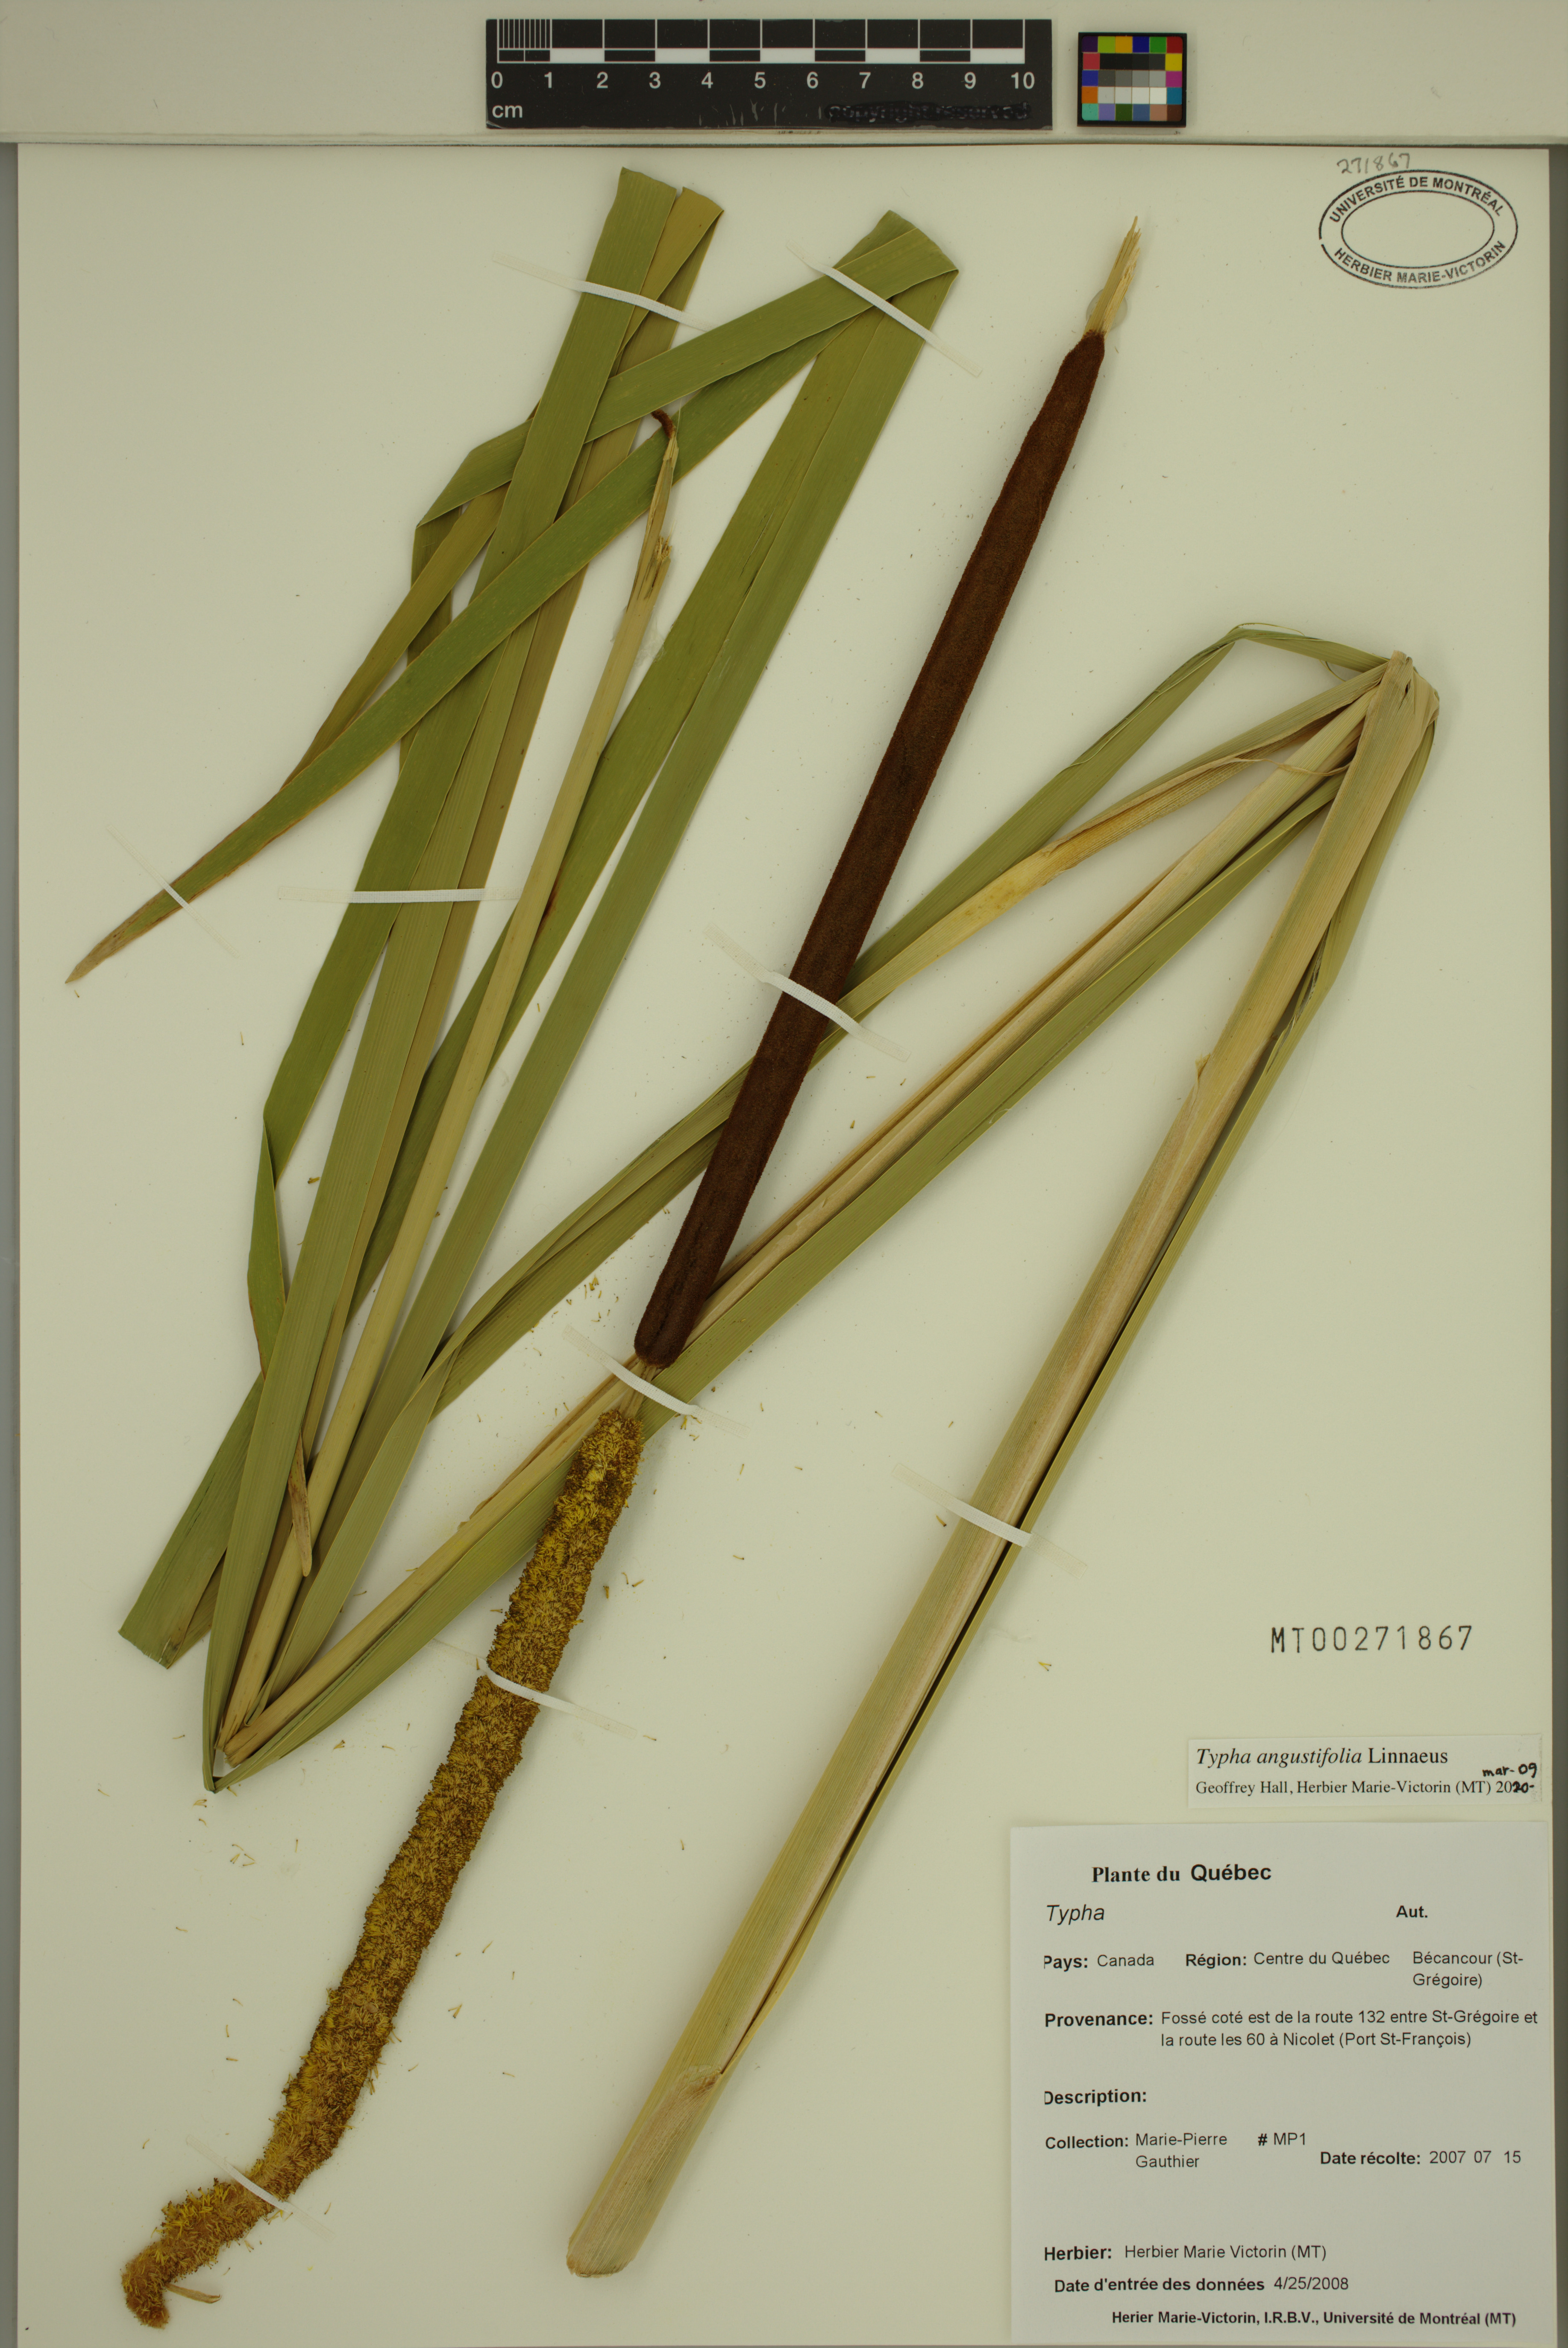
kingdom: Plantae
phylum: Tracheophyta
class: Liliopsida
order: Poales
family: Typhaceae
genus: Typha
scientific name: Typha angustifolia
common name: Lesser bulrush
